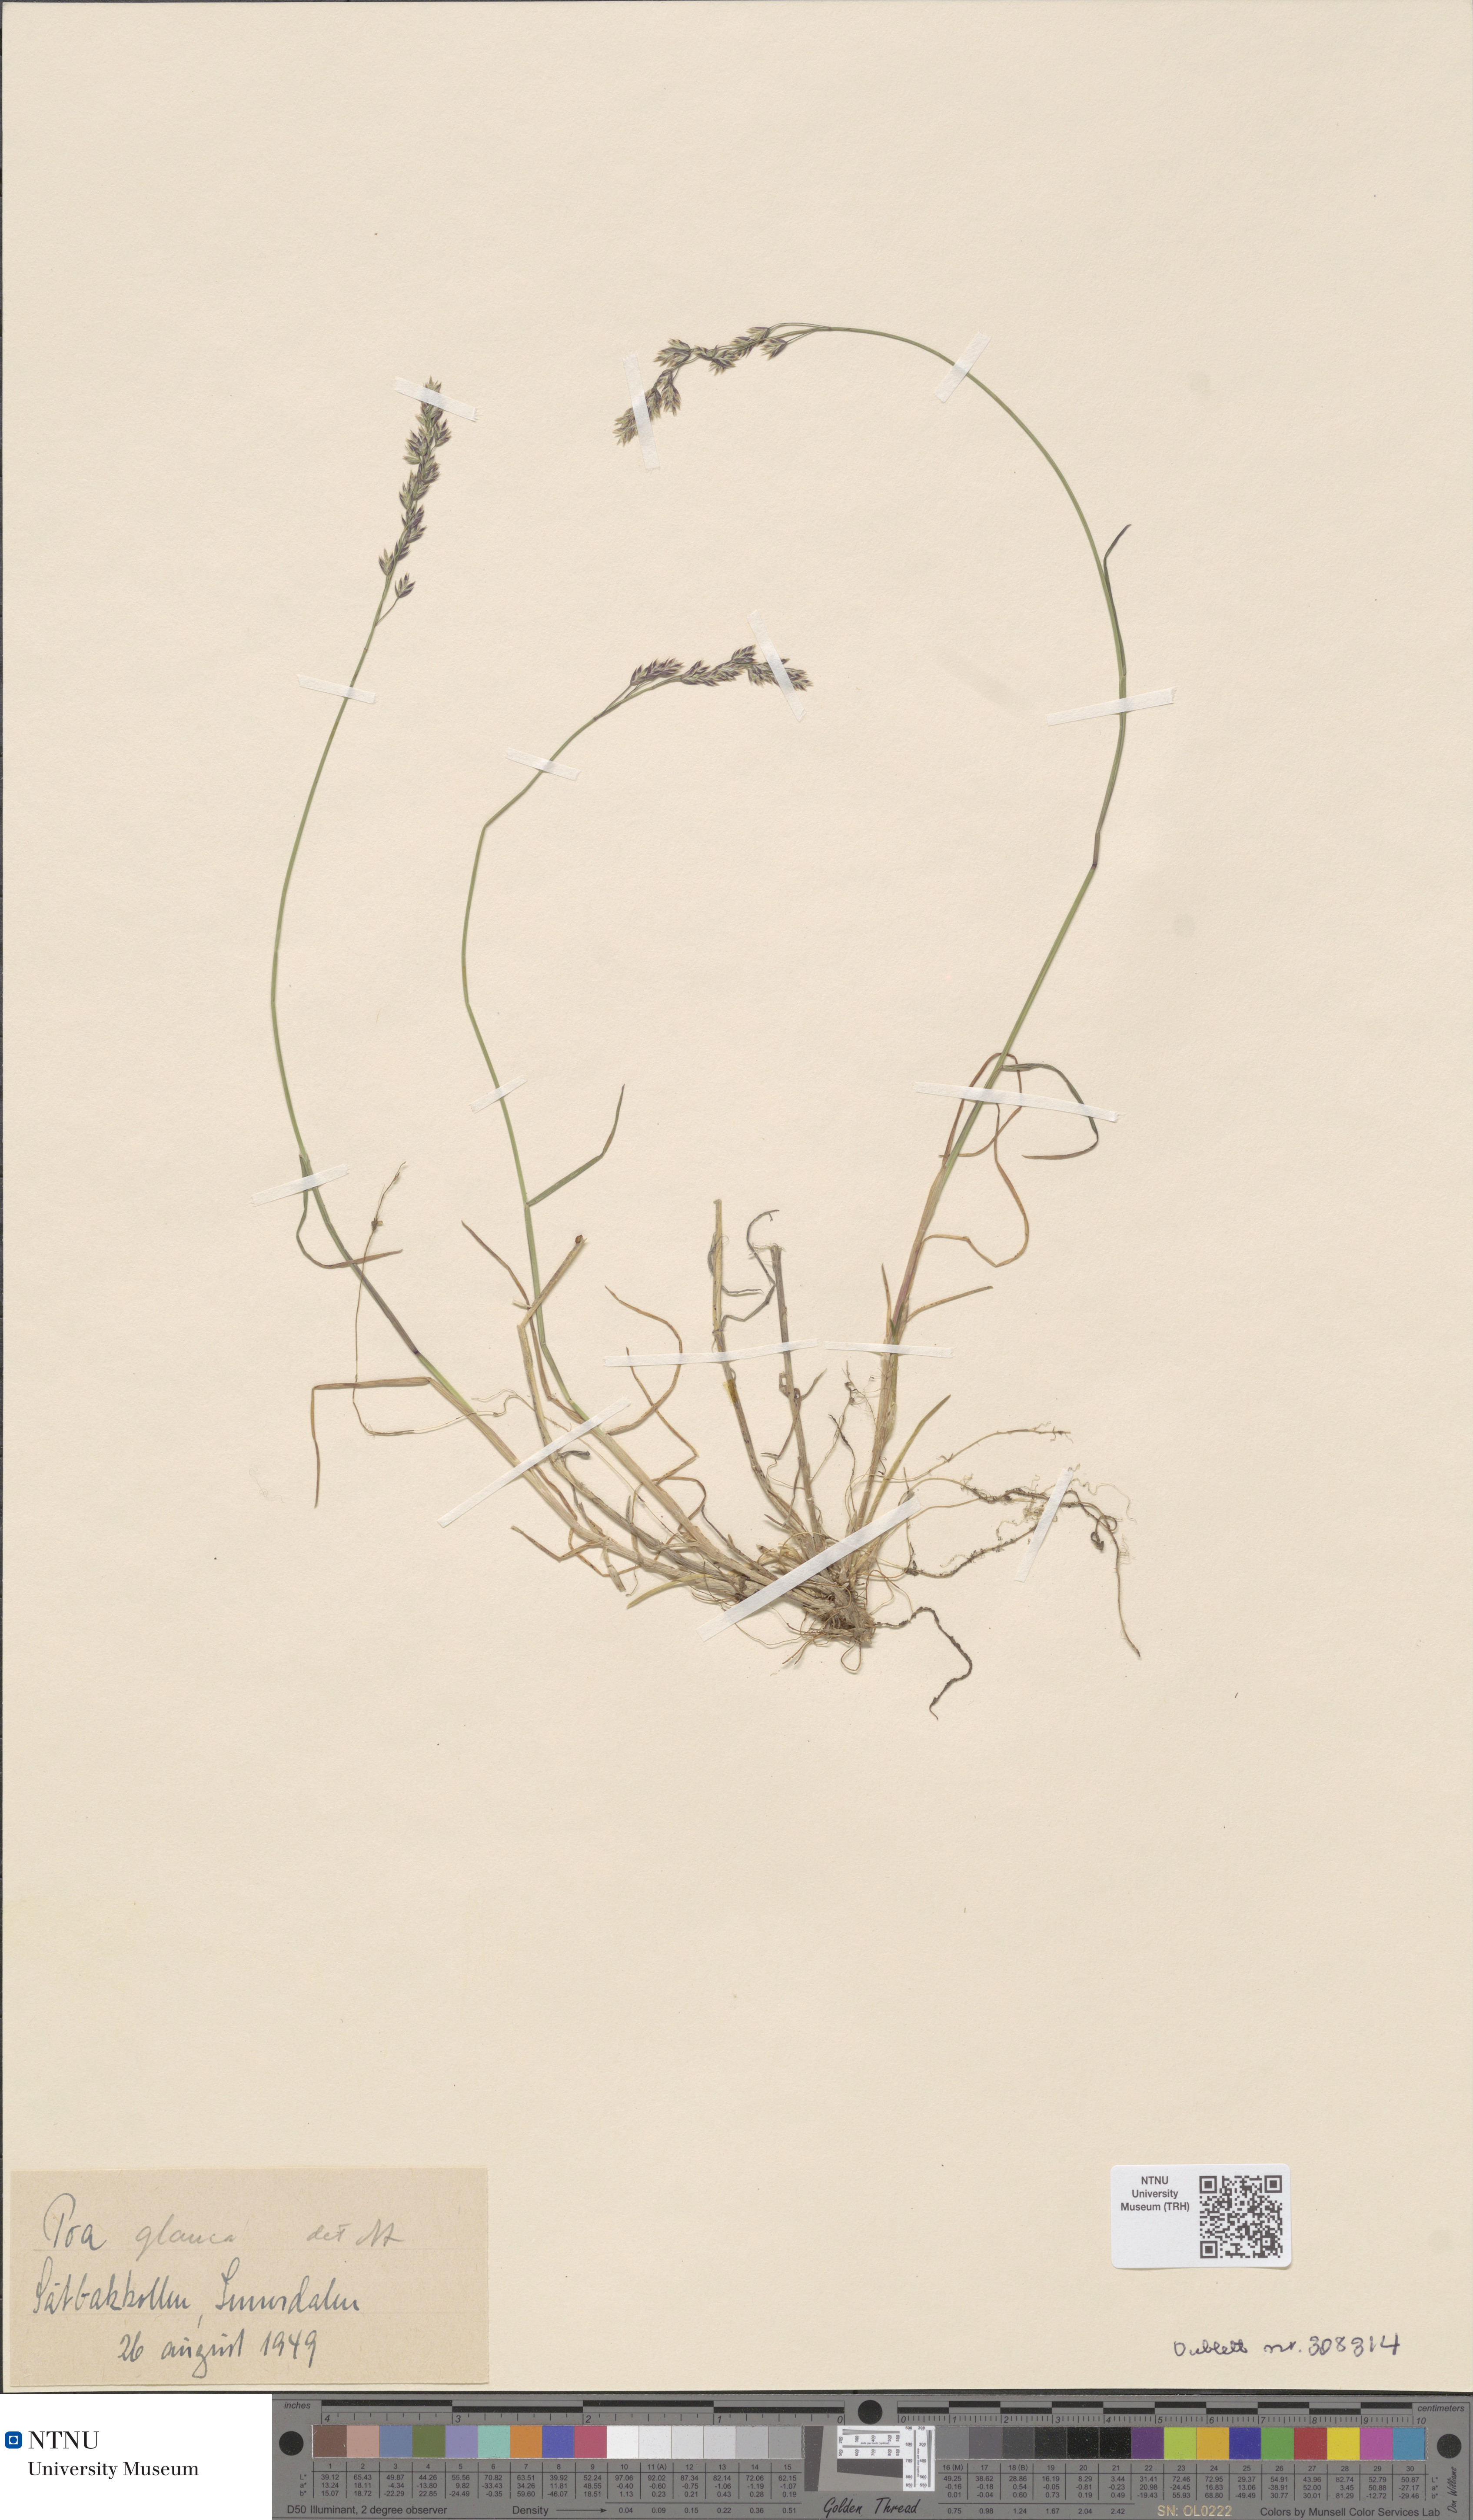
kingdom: Plantae
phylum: Tracheophyta
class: Liliopsida
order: Poales
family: Poaceae
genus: Poa
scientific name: Poa glauca
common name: Glaucous bluegrass
